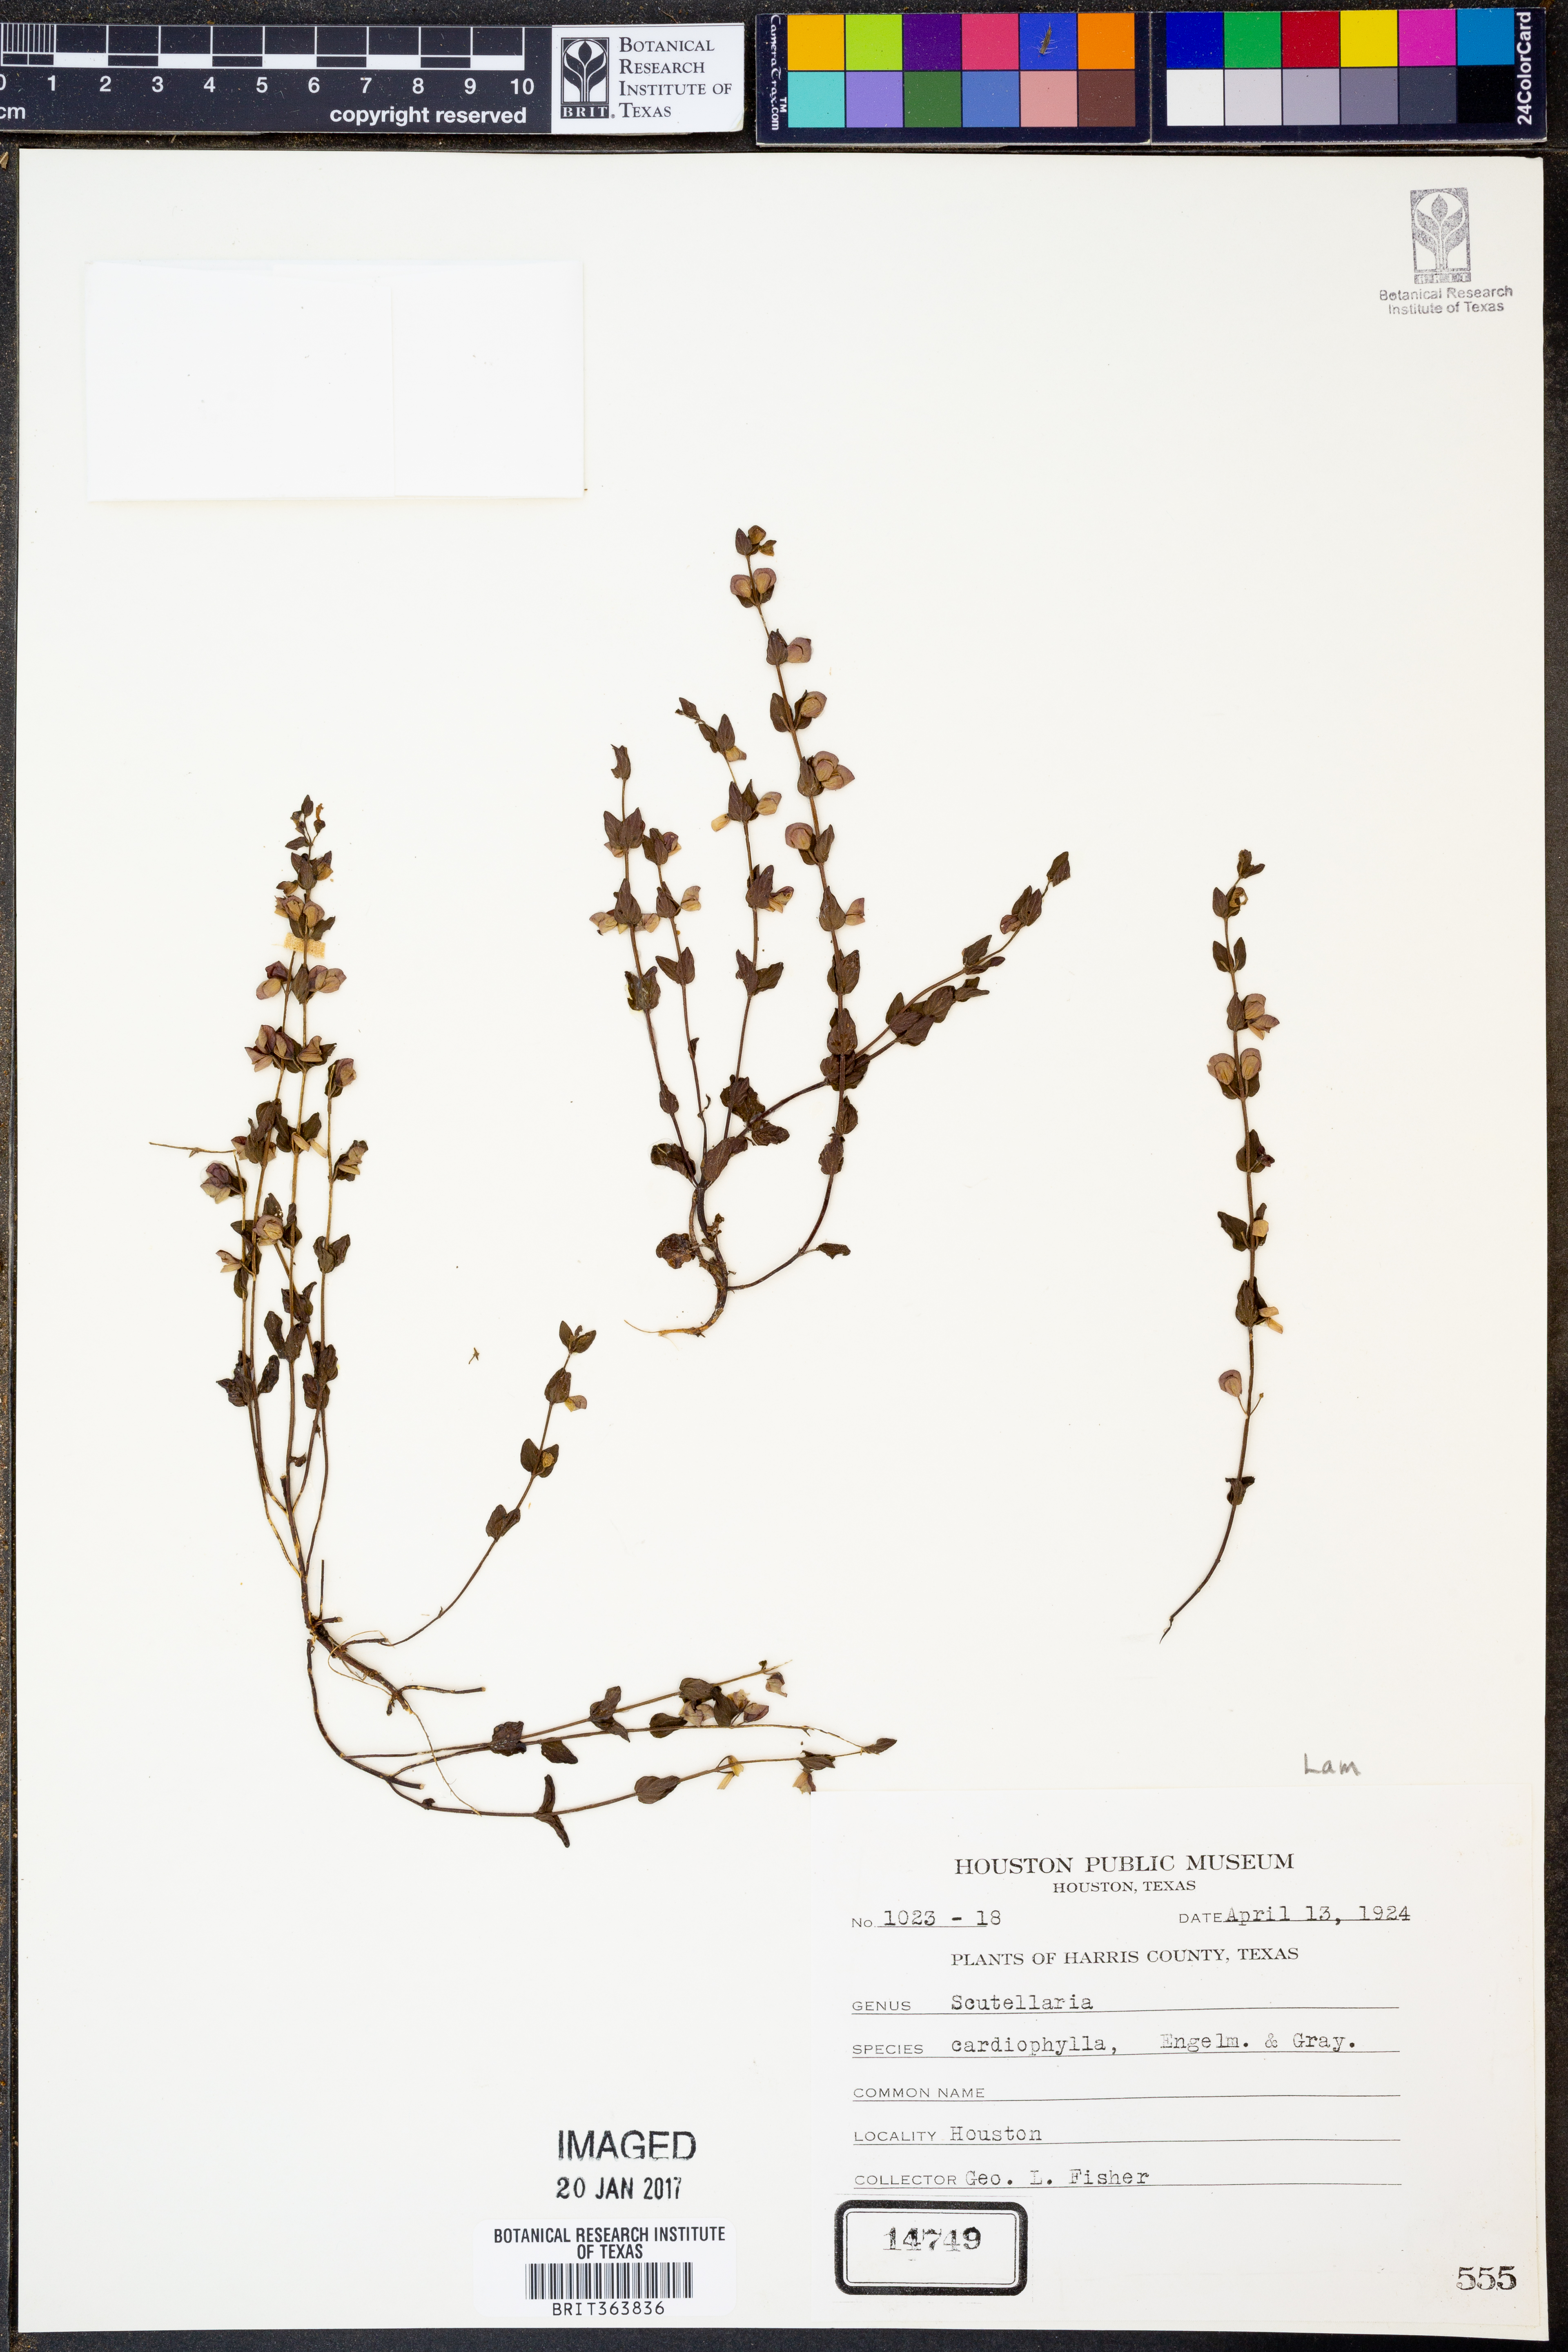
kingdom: Plantae
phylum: Tracheophyta
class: Magnoliopsida
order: Lamiales
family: Lamiaceae
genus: Scutellaria
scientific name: Scutellaria cardiophylla
